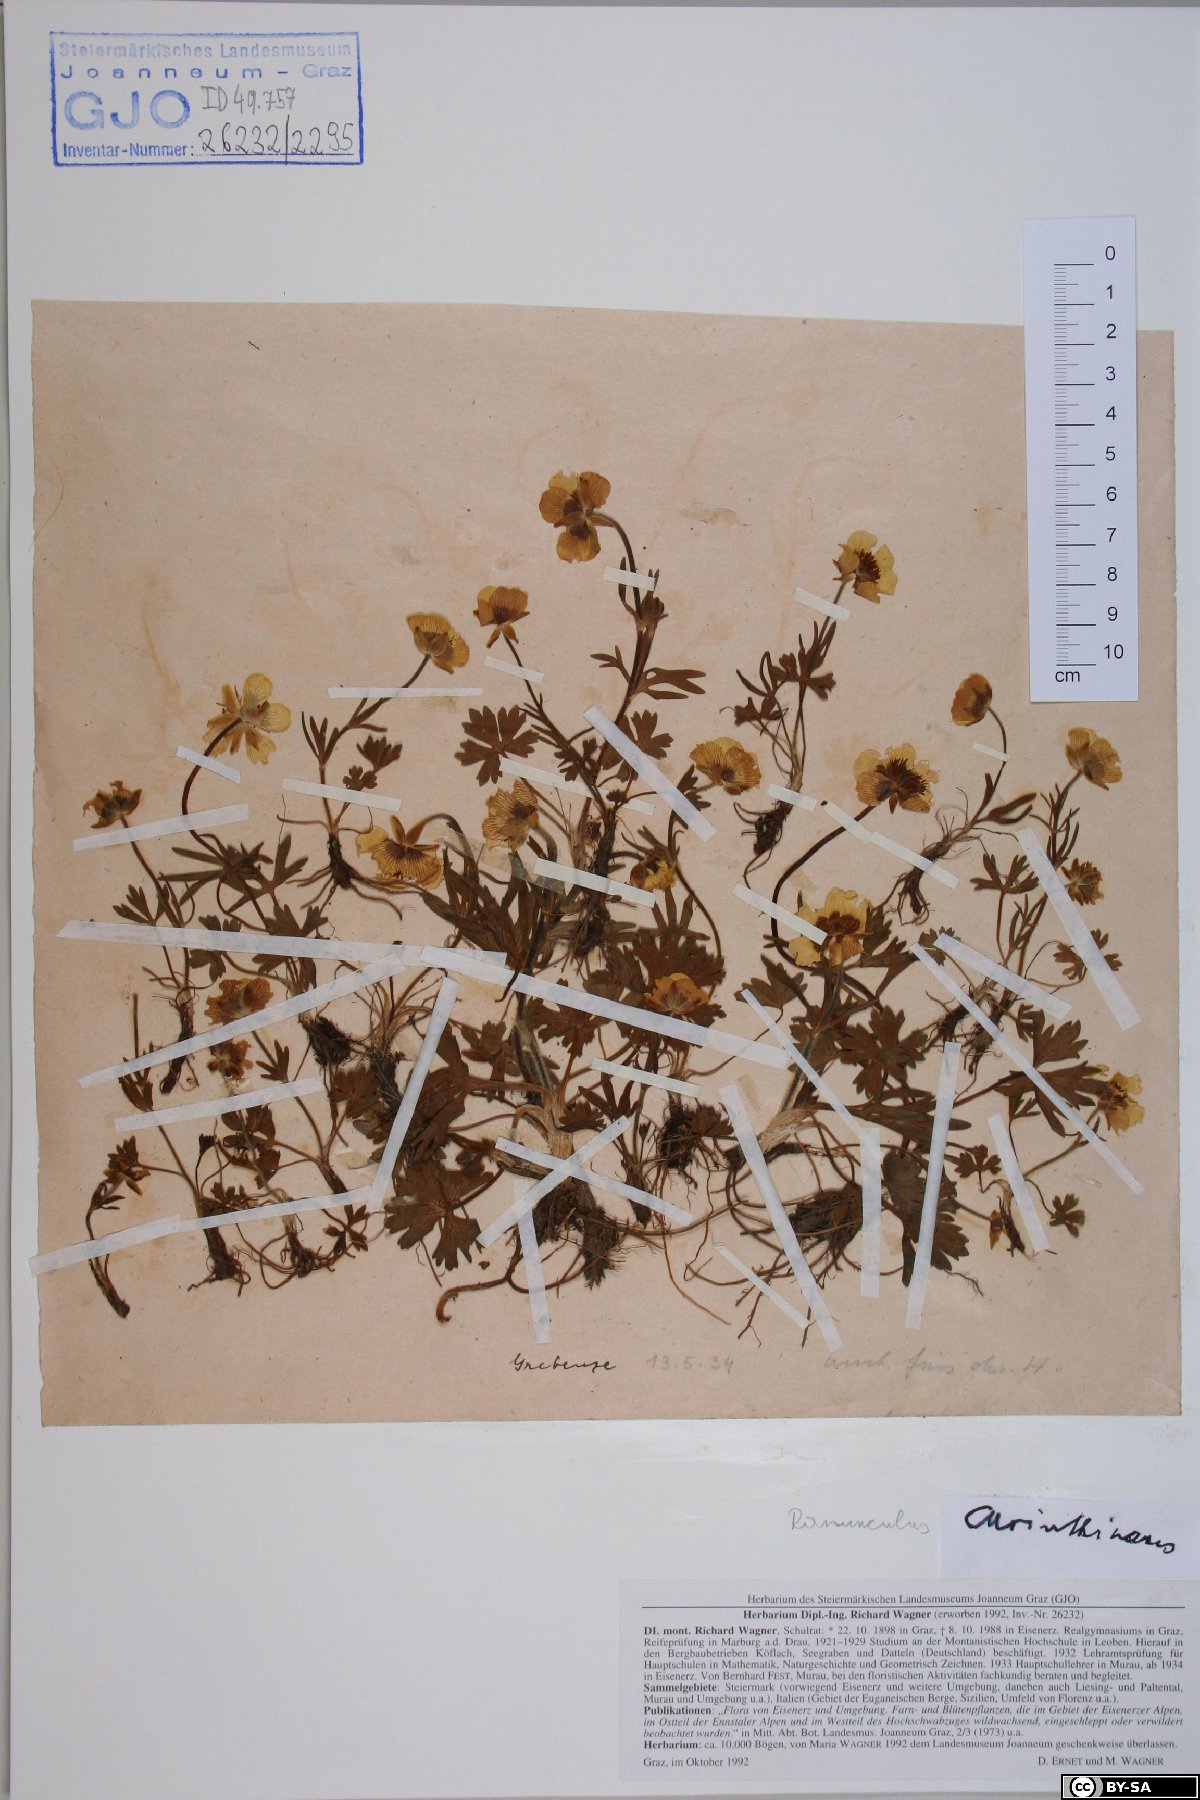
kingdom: Plantae
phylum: Tracheophyta
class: Magnoliopsida
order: Ranunculales
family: Ranunculaceae
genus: Ranunculus
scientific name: Ranunculus carinthiacus
